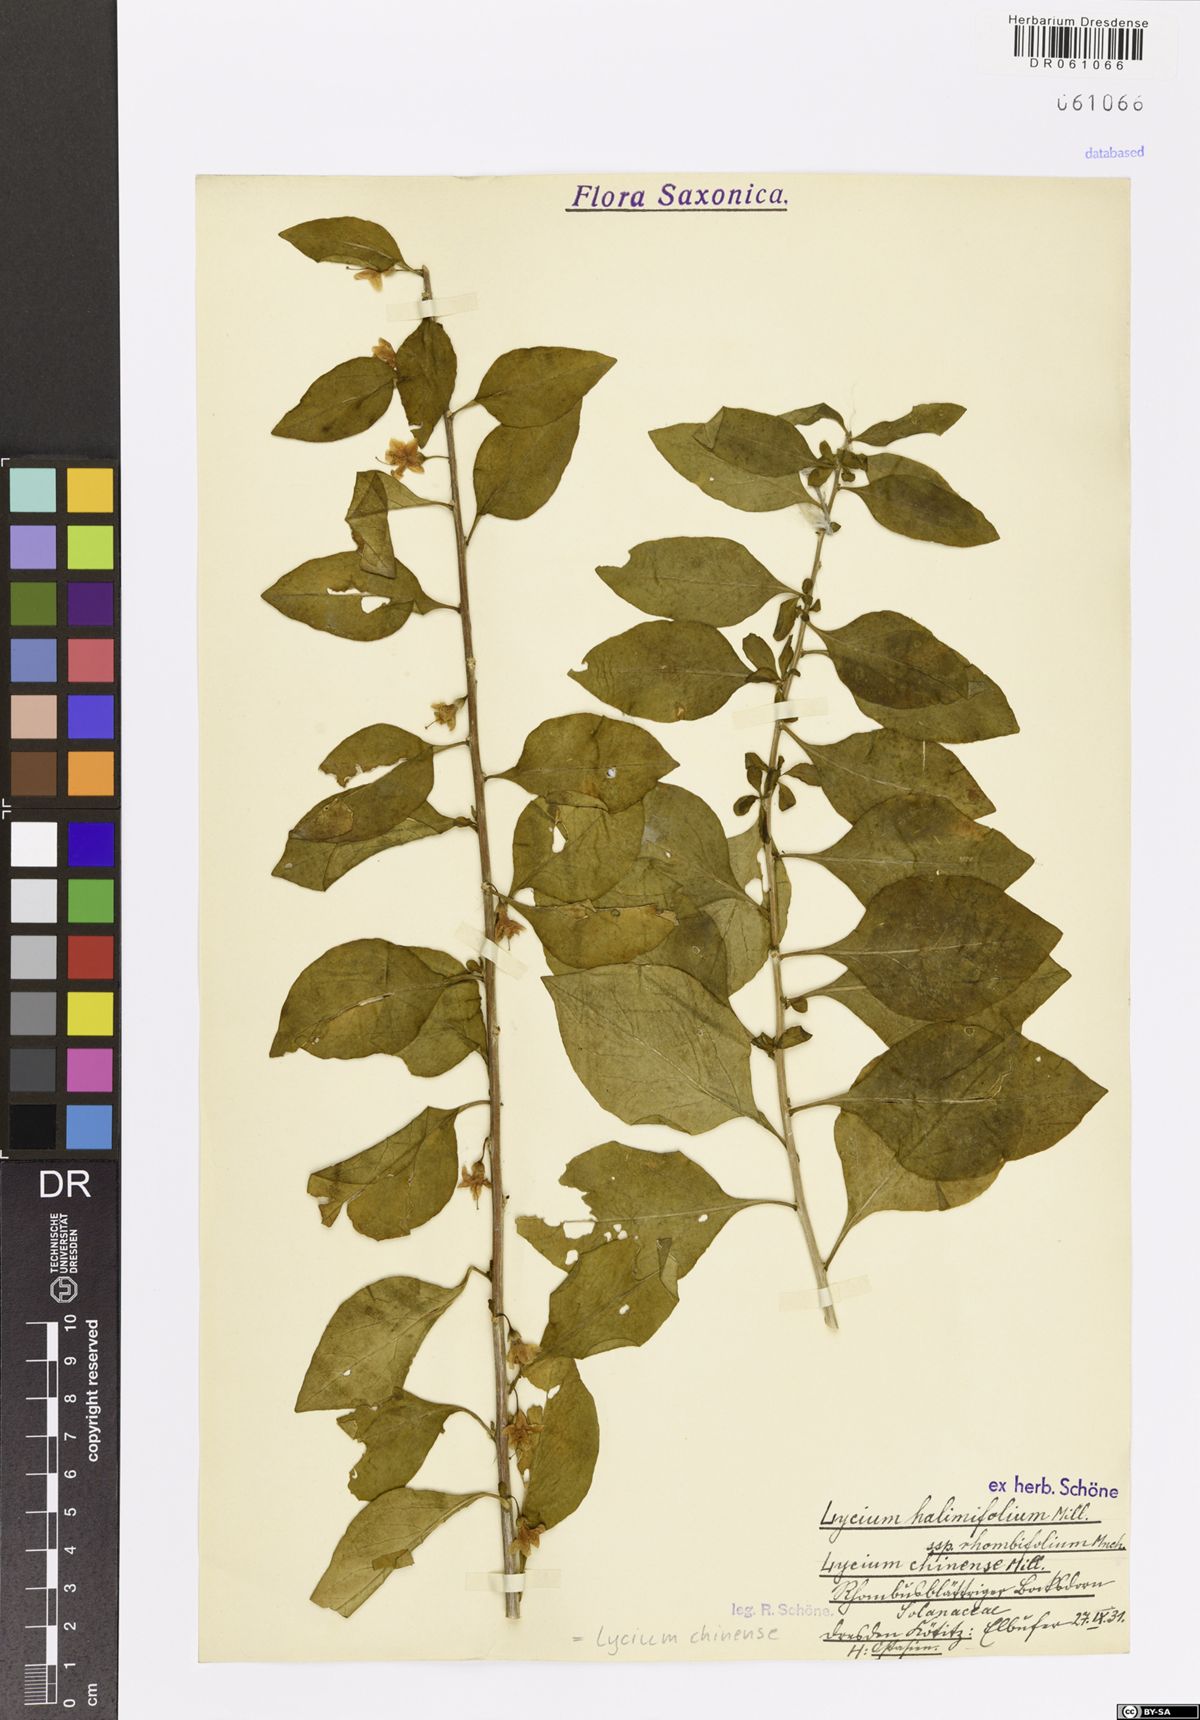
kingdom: Plantae
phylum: Tracheophyta
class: Magnoliopsida
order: Solanales
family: Solanaceae
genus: Lycium
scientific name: Lycium chinense
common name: Chinese teaplant
